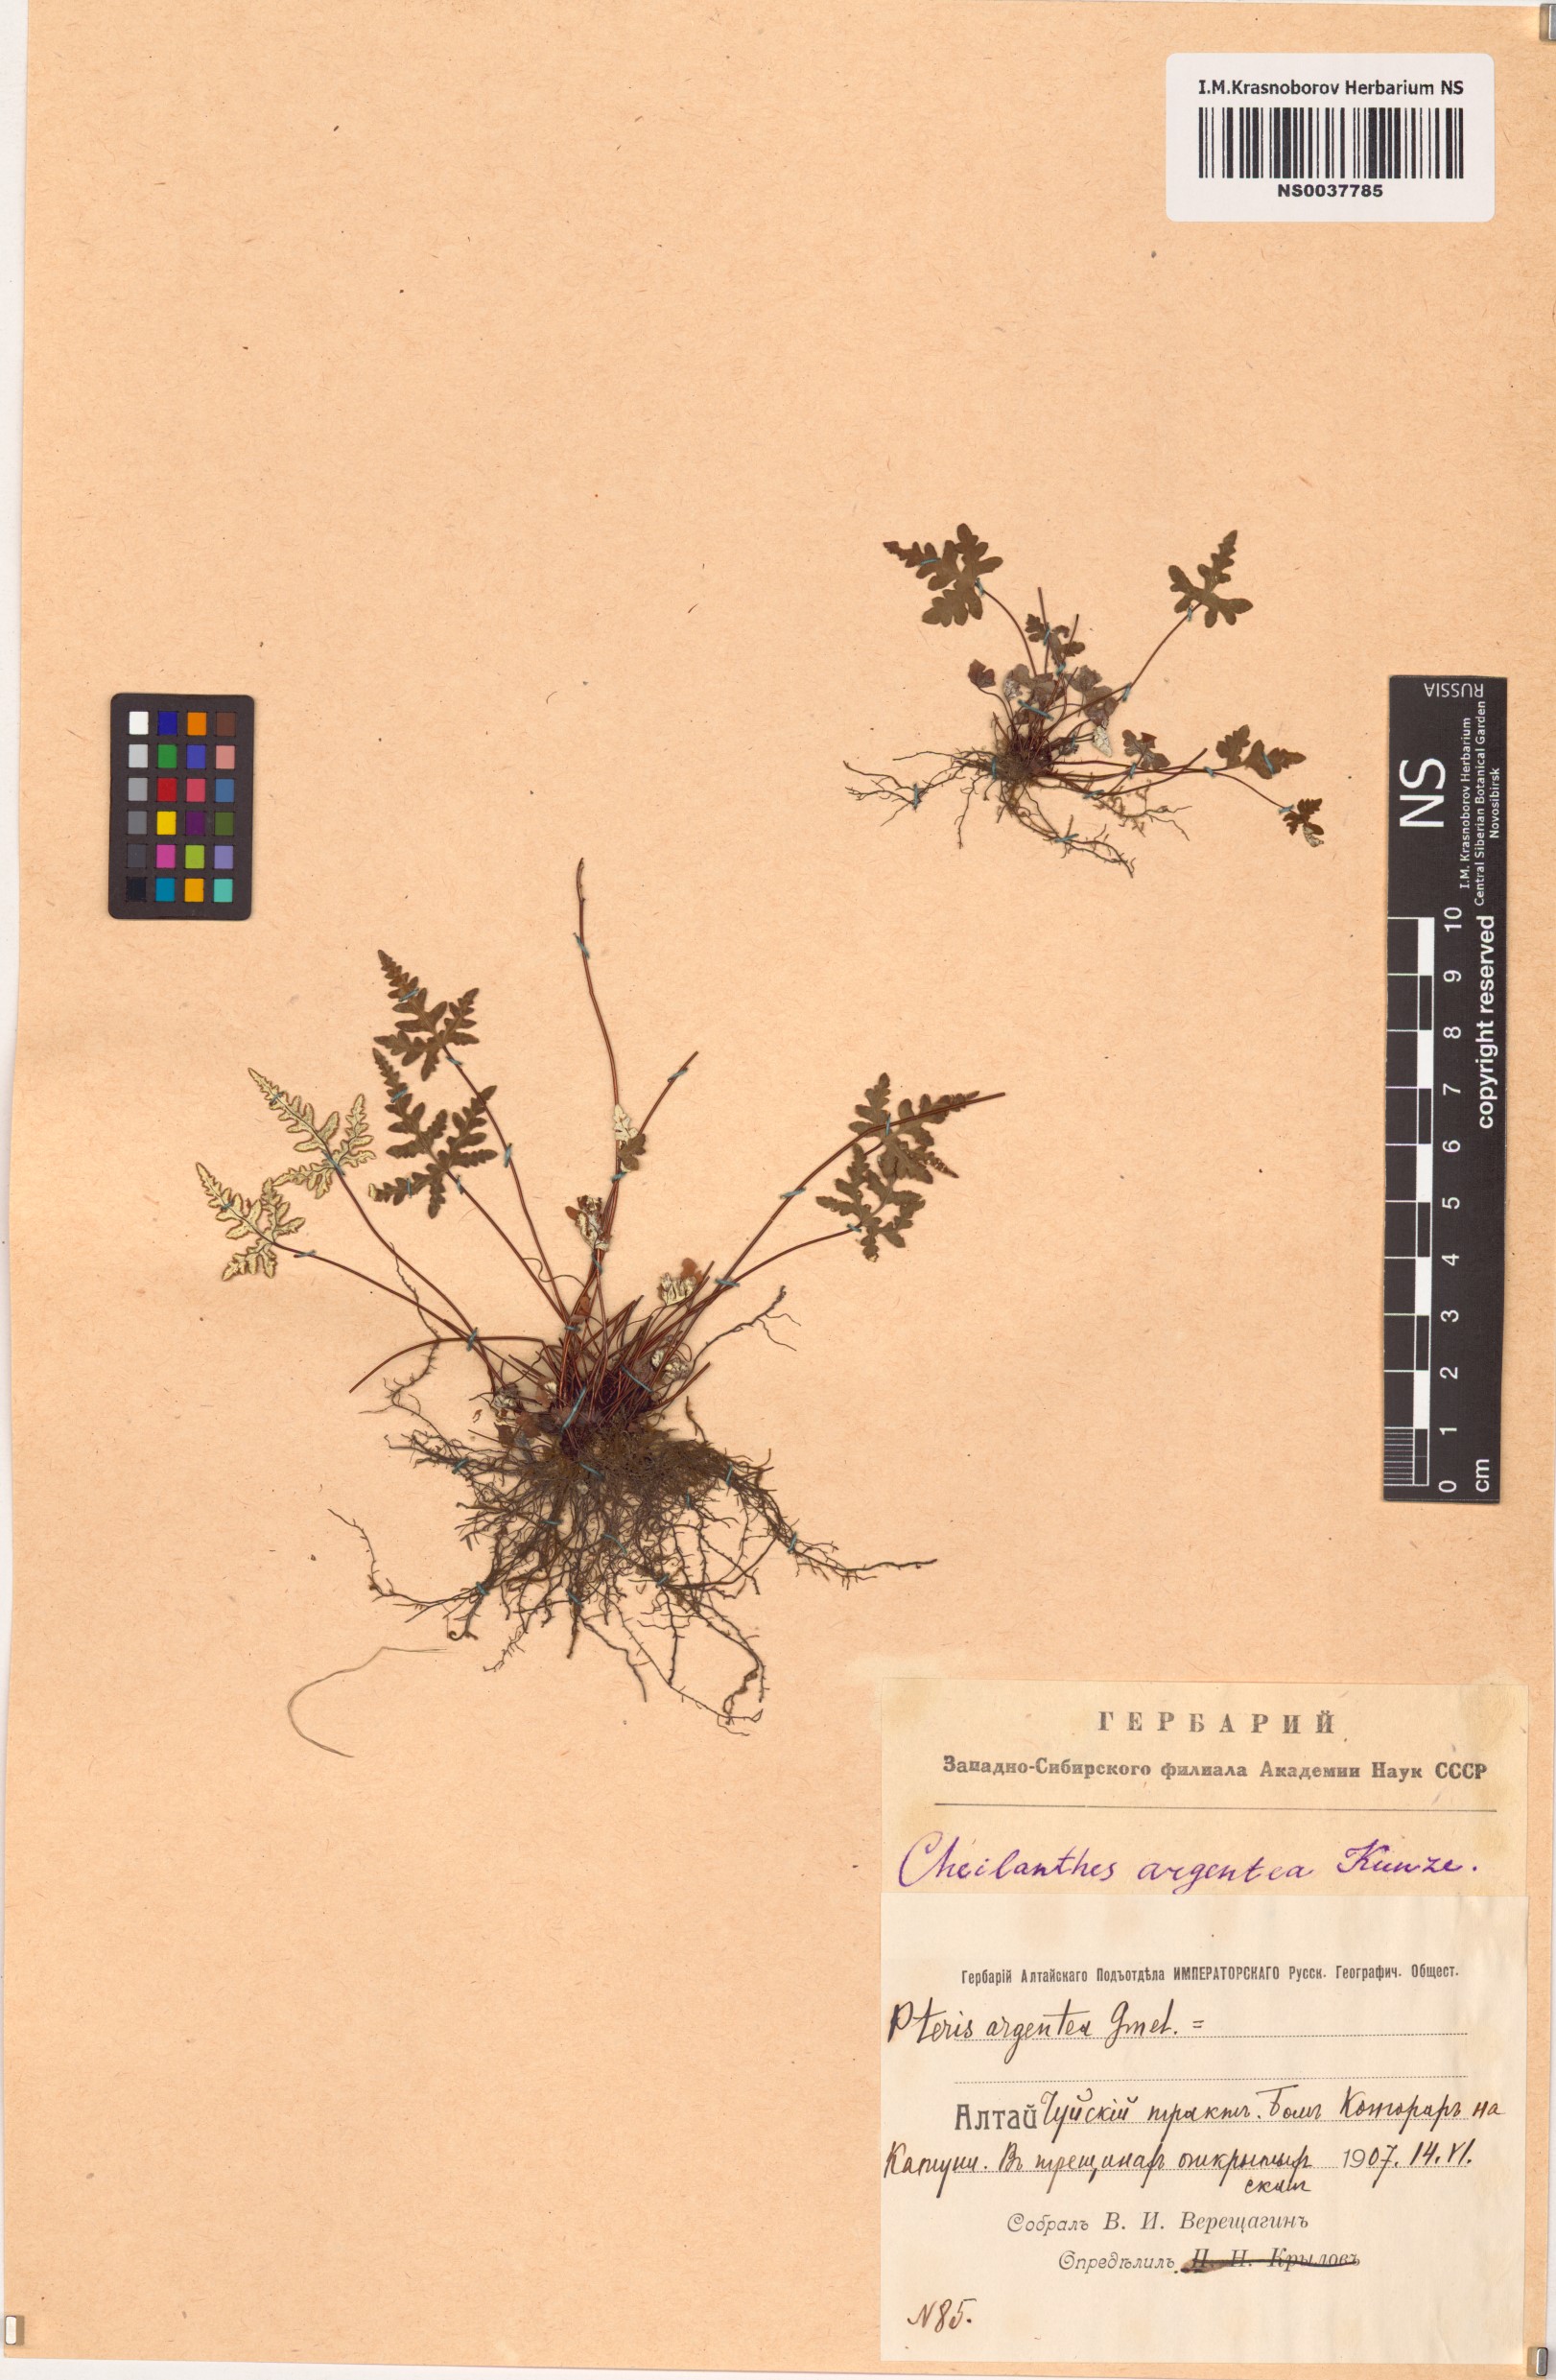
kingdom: Plantae
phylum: Tracheophyta
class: Polypodiopsida
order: Polypodiales
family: Pteridaceae
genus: Aleuritopteris
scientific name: Aleuritopteris argentea
